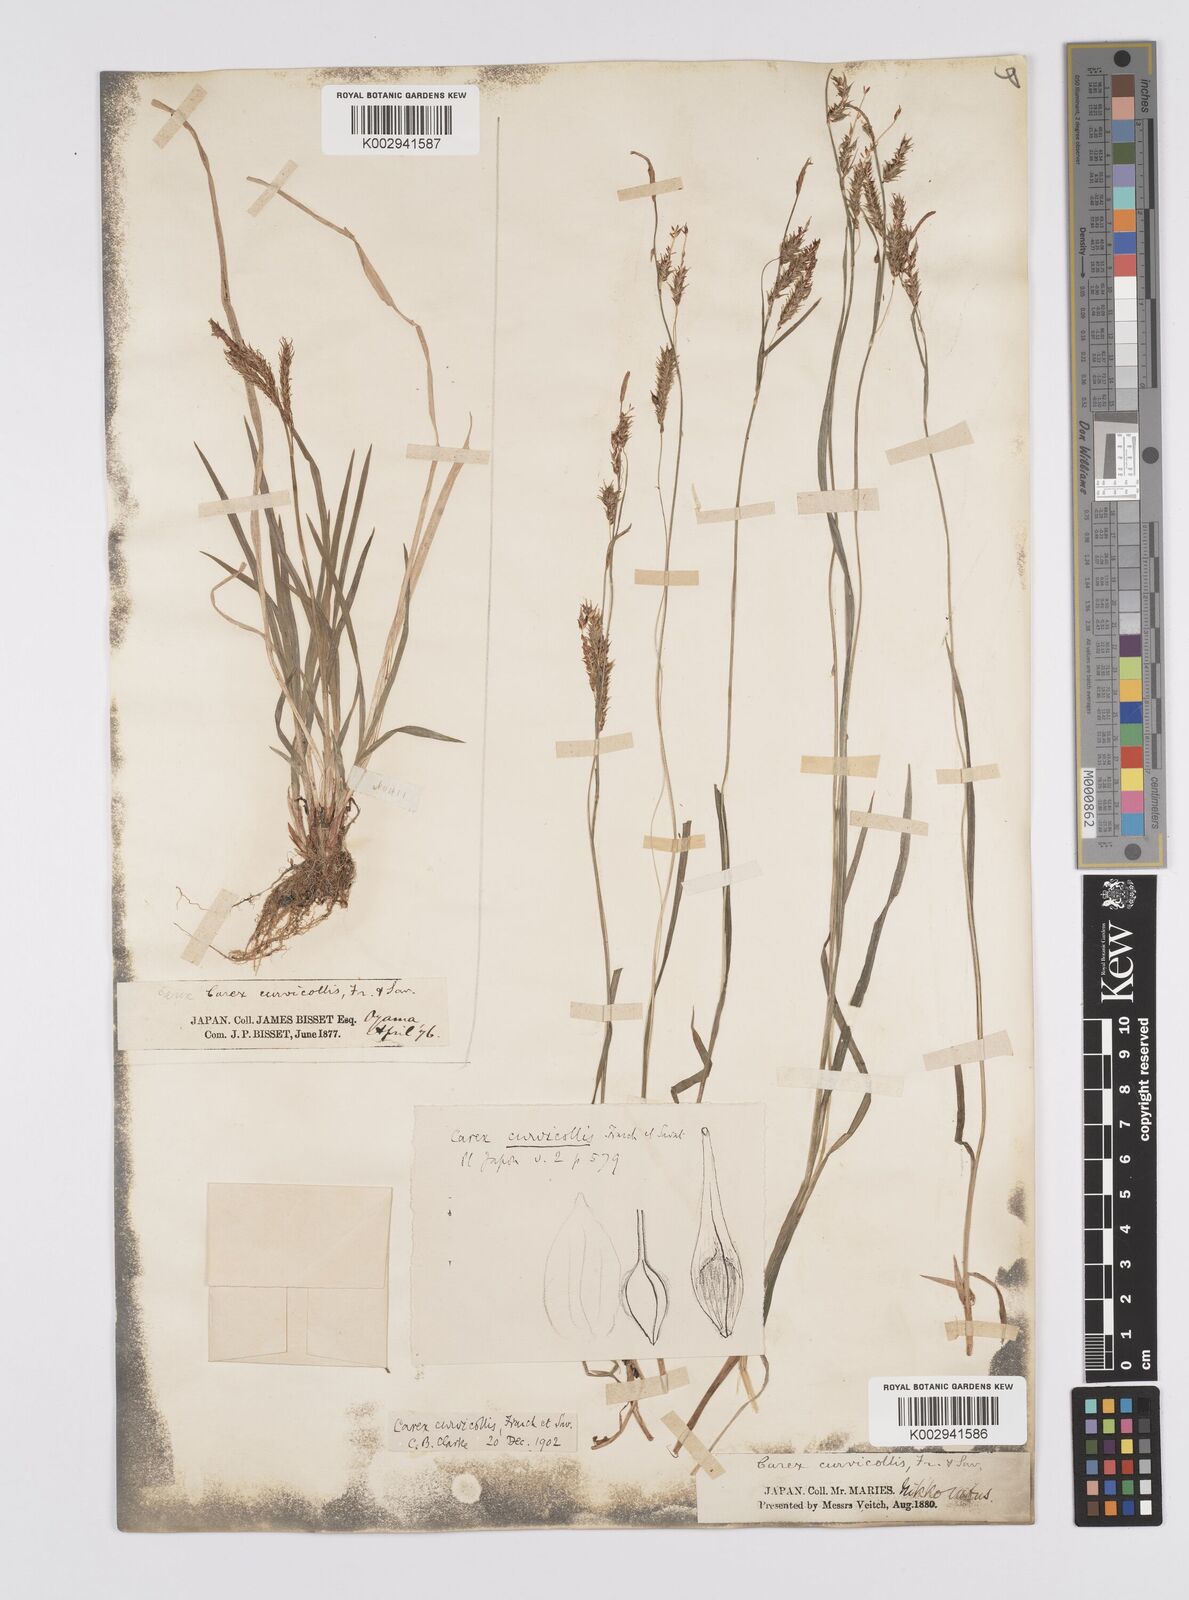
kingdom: Plantae
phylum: Tracheophyta
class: Liliopsida
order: Poales
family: Cyperaceae
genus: Carex
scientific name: Carex curvicollis
